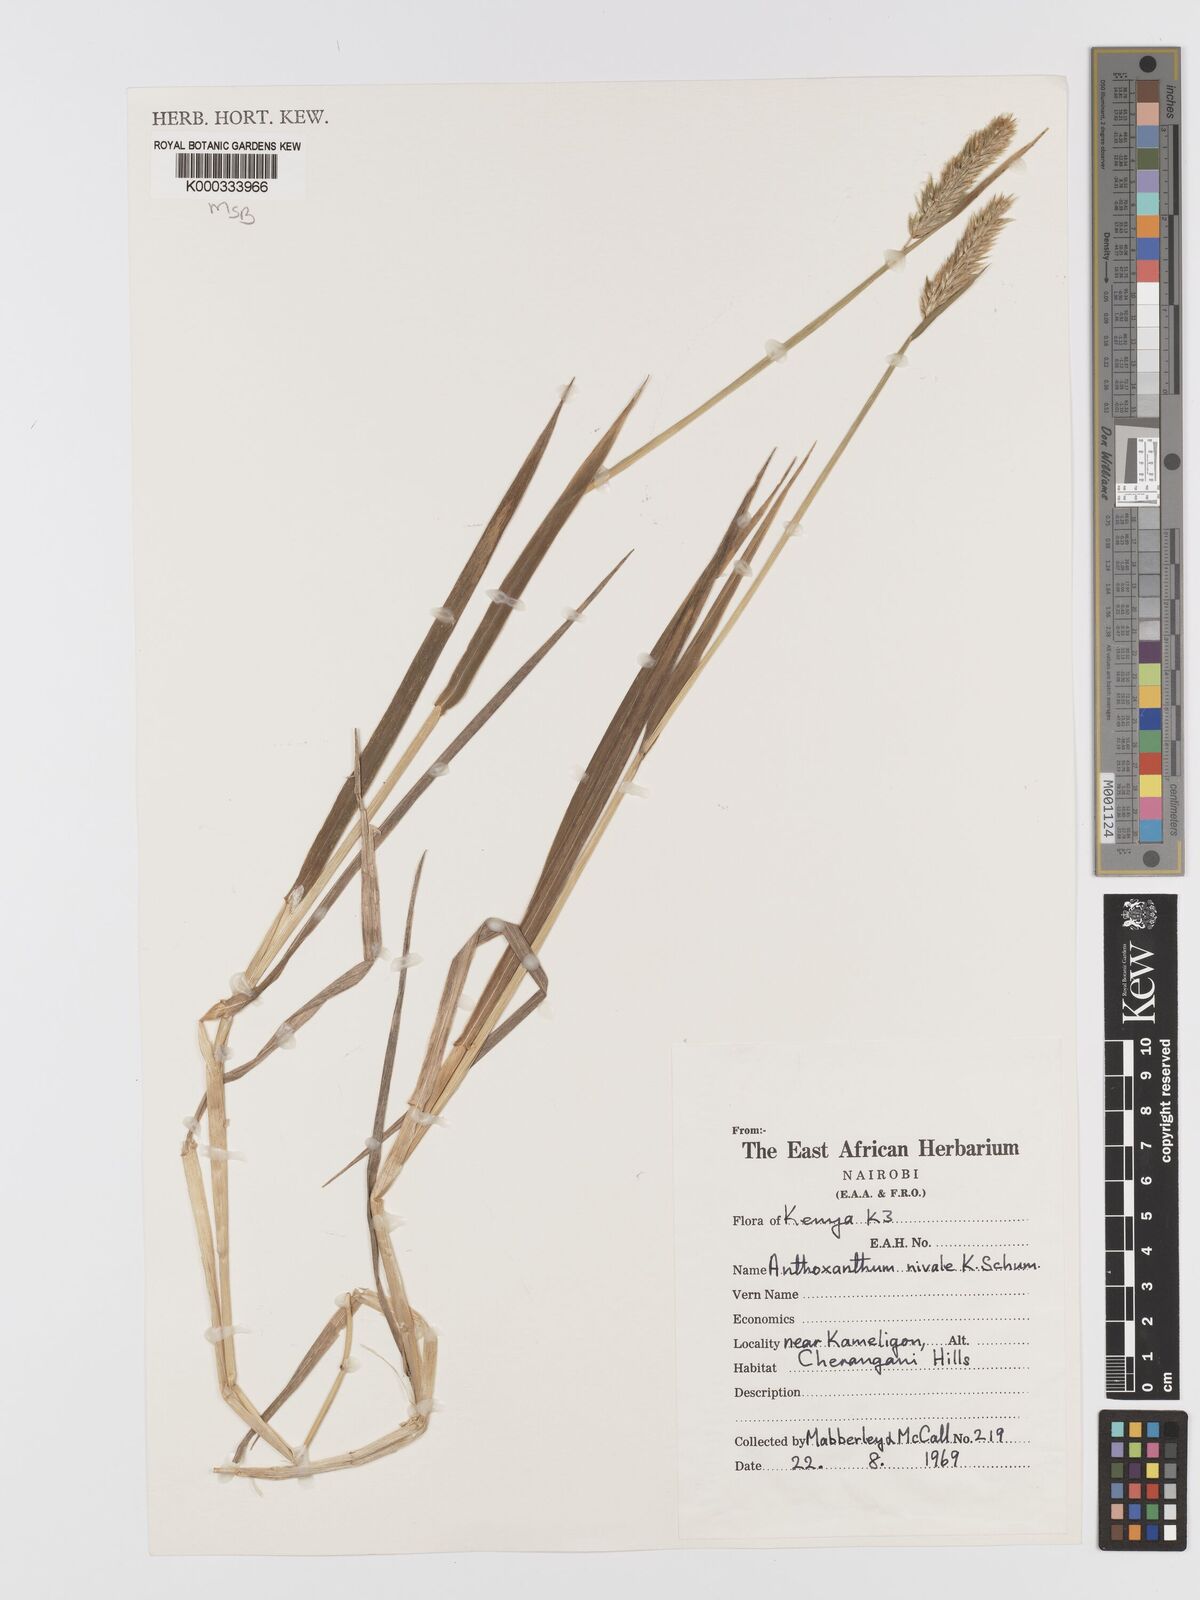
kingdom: Plantae
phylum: Tracheophyta
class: Liliopsida
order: Poales
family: Poaceae
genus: Anthoxanthum
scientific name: Anthoxanthum
